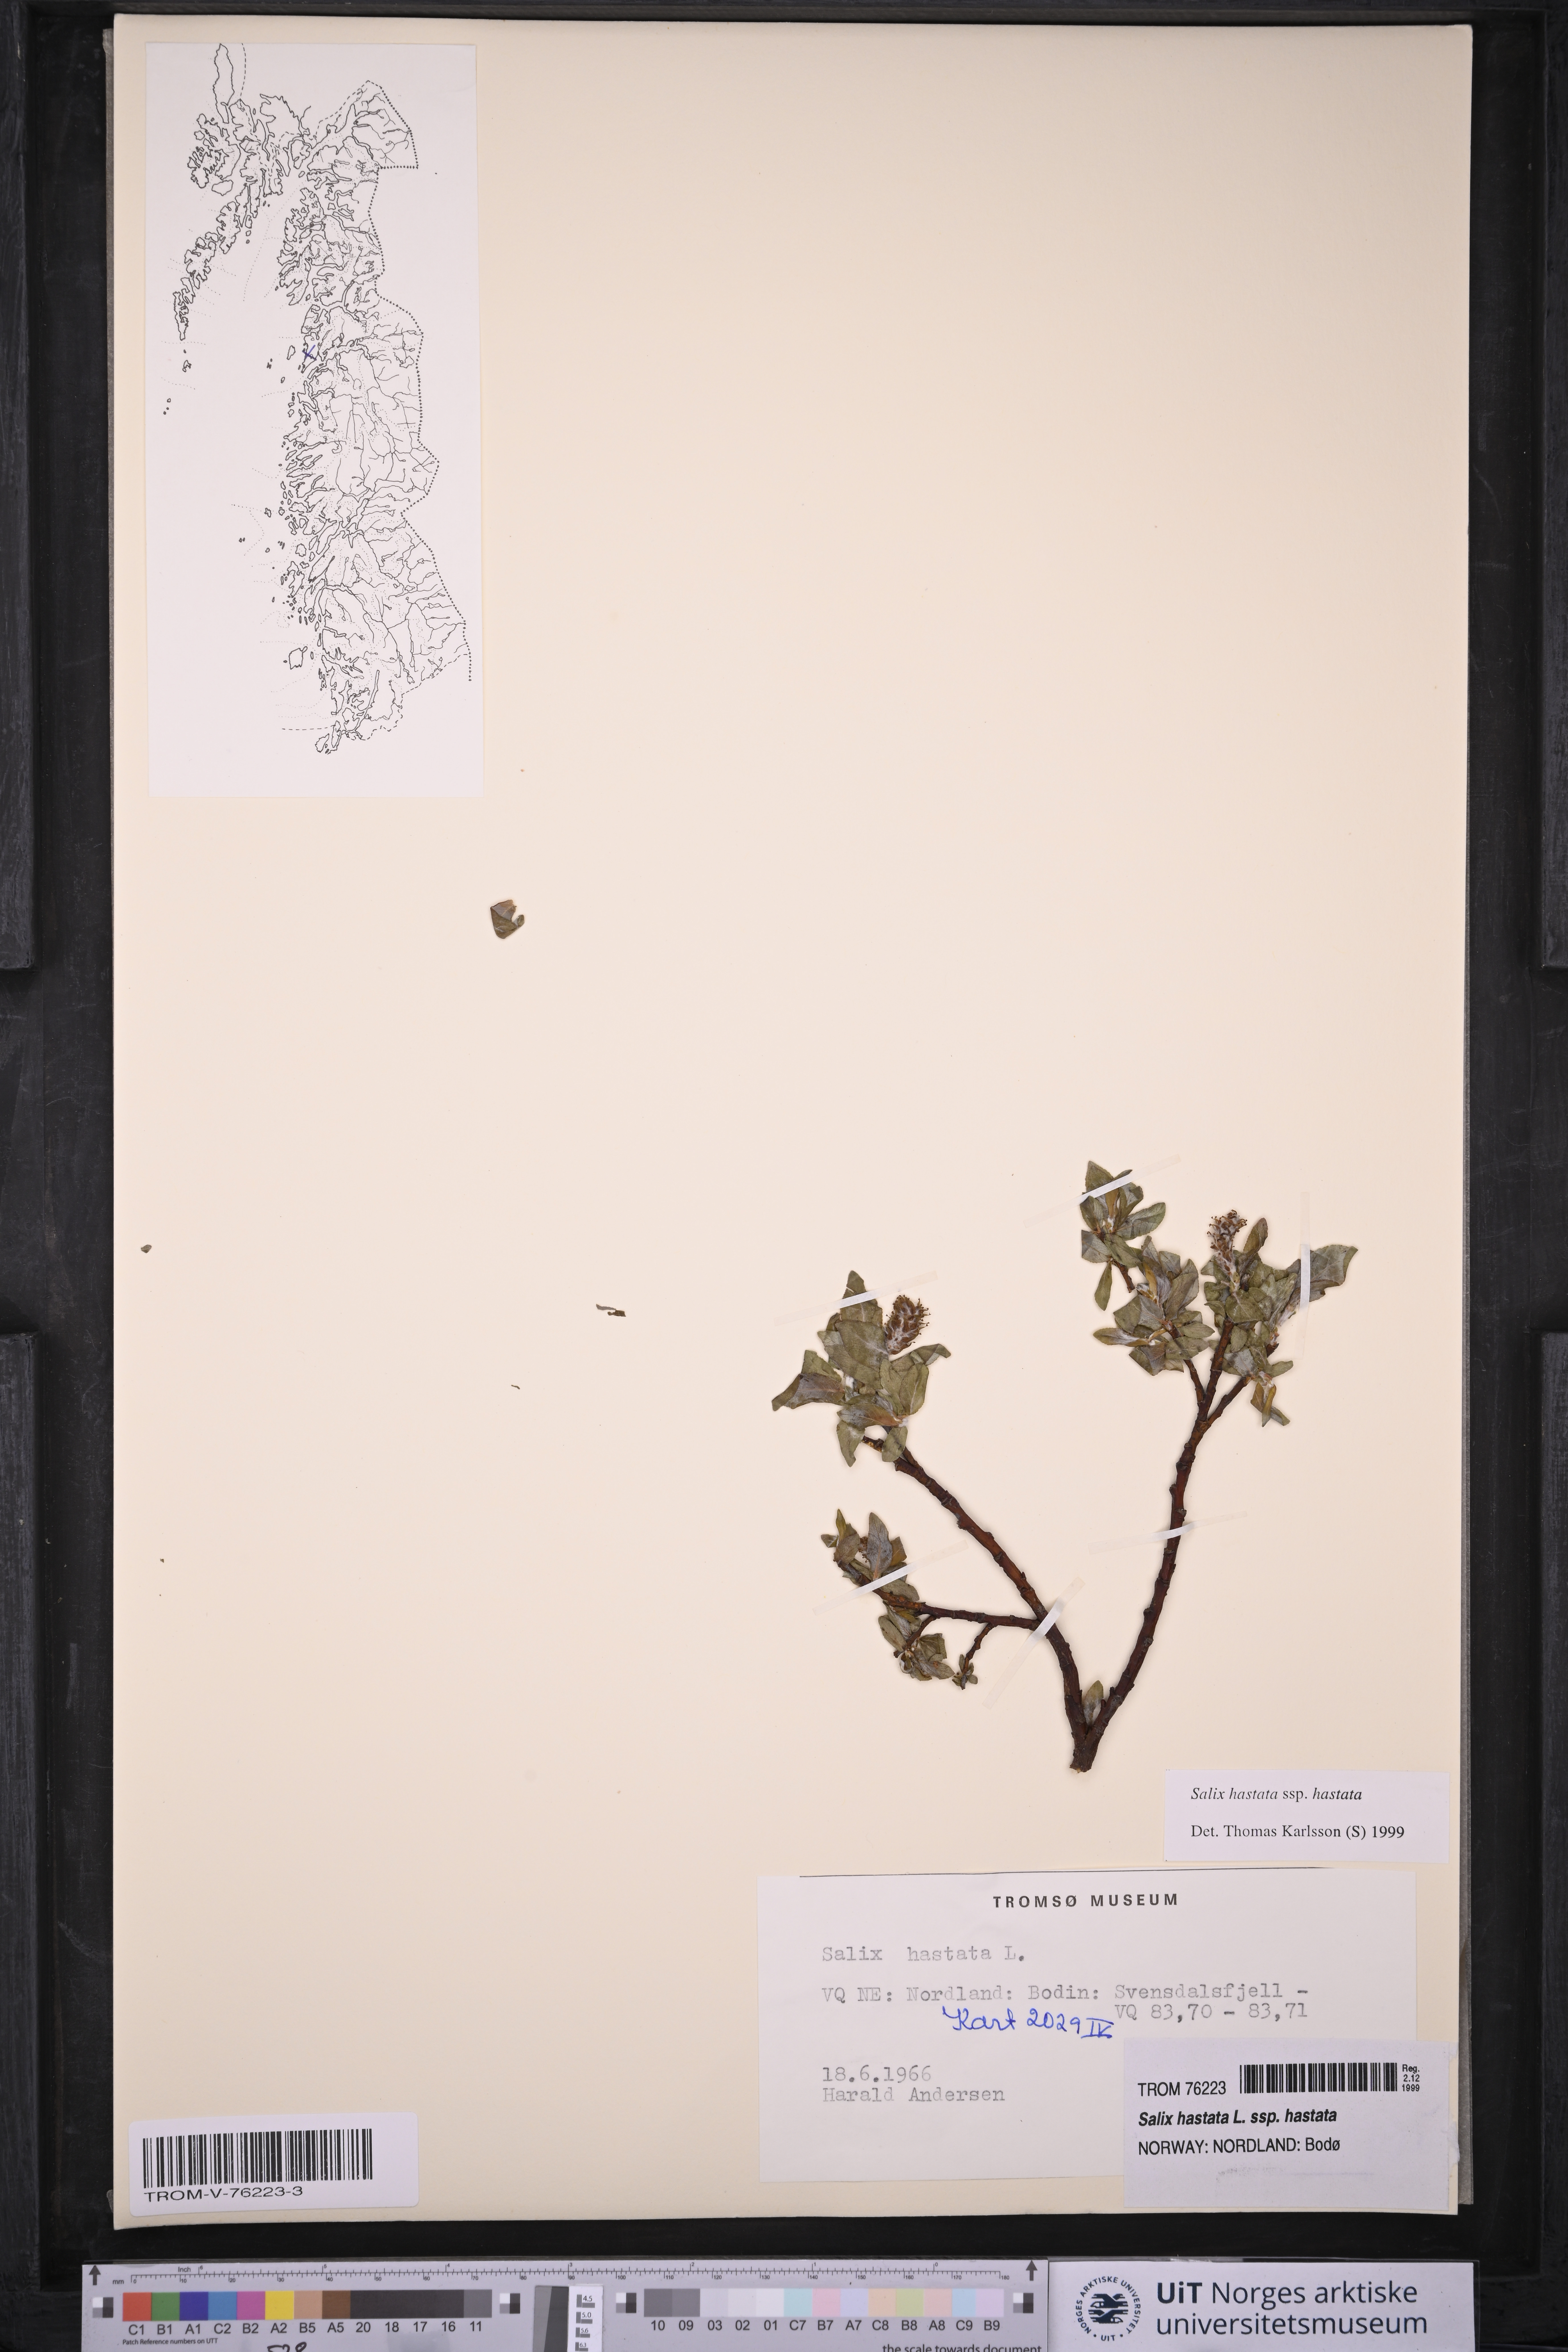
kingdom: Plantae
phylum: Tracheophyta
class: Magnoliopsida
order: Malpighiales
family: Salicaceae
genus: Salix
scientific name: Salix hastata
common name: Halberd willow
